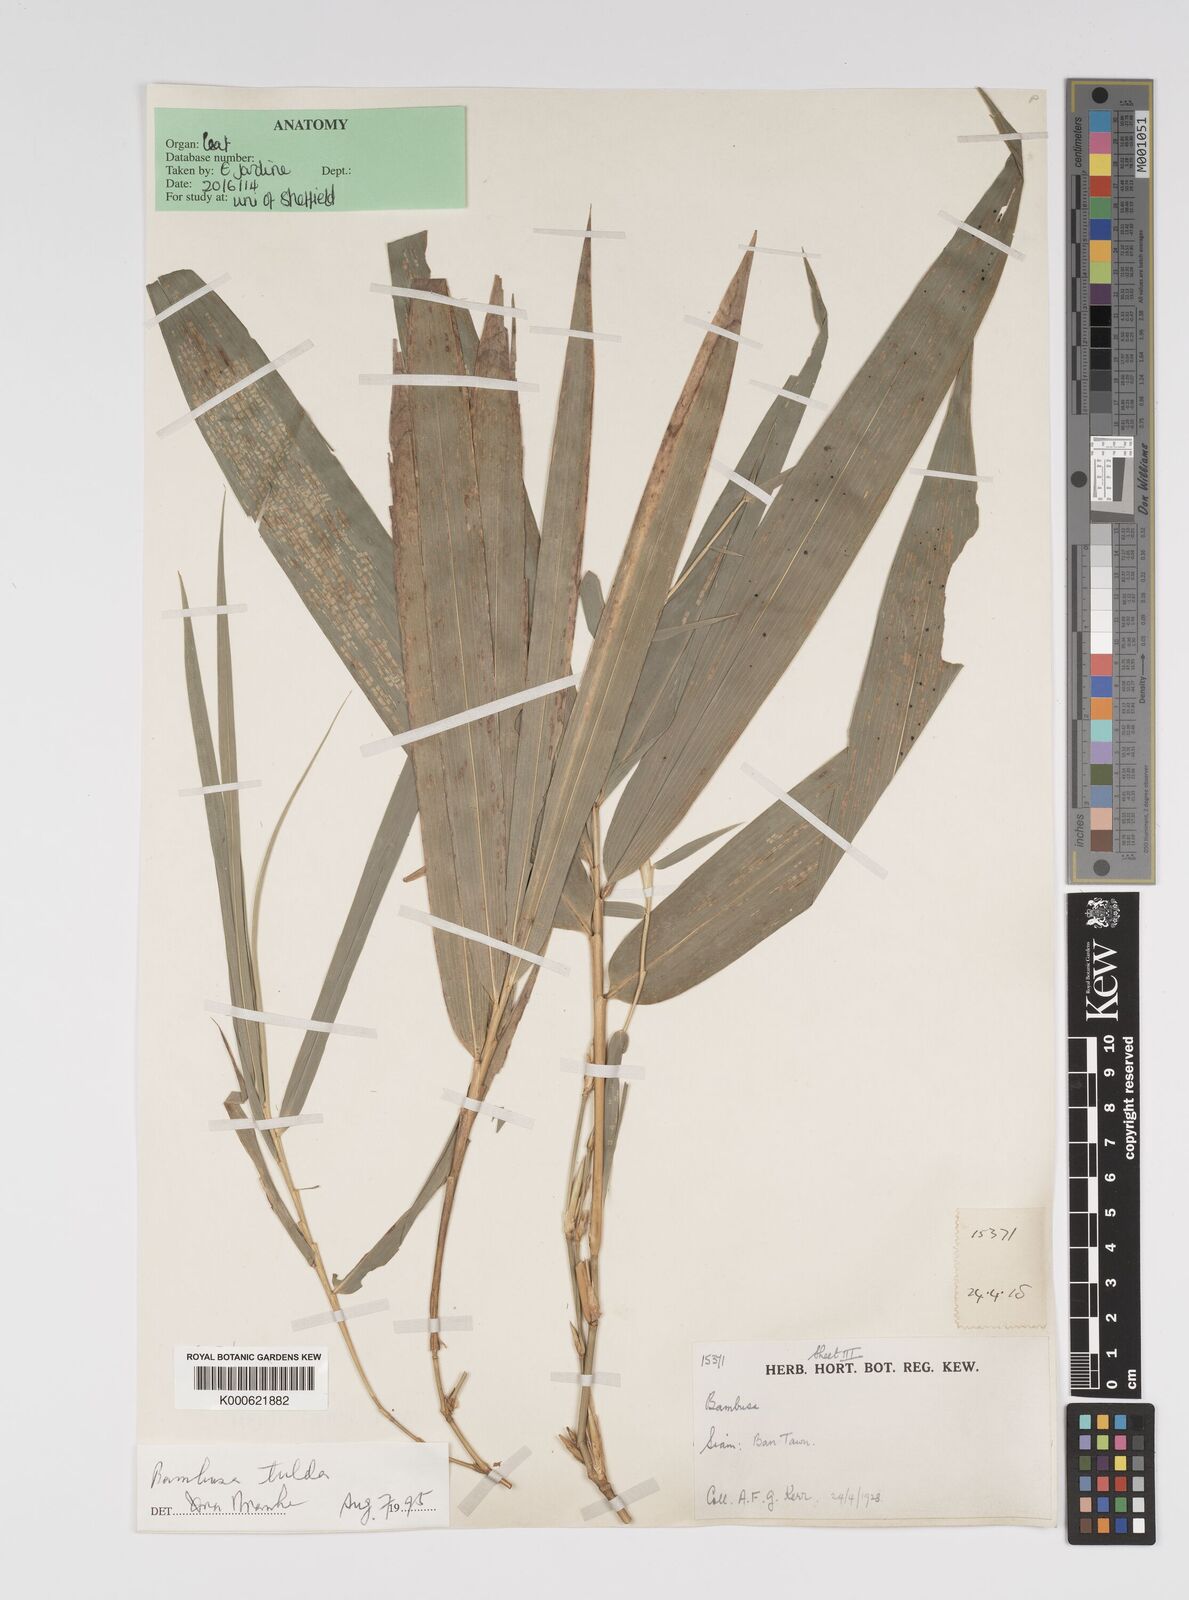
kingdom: Plantae
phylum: Tracheophyta
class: Liliopsida
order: Poales
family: Poaceae
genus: Bambusa
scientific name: Bambusa tulda
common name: Bengal bamboo
